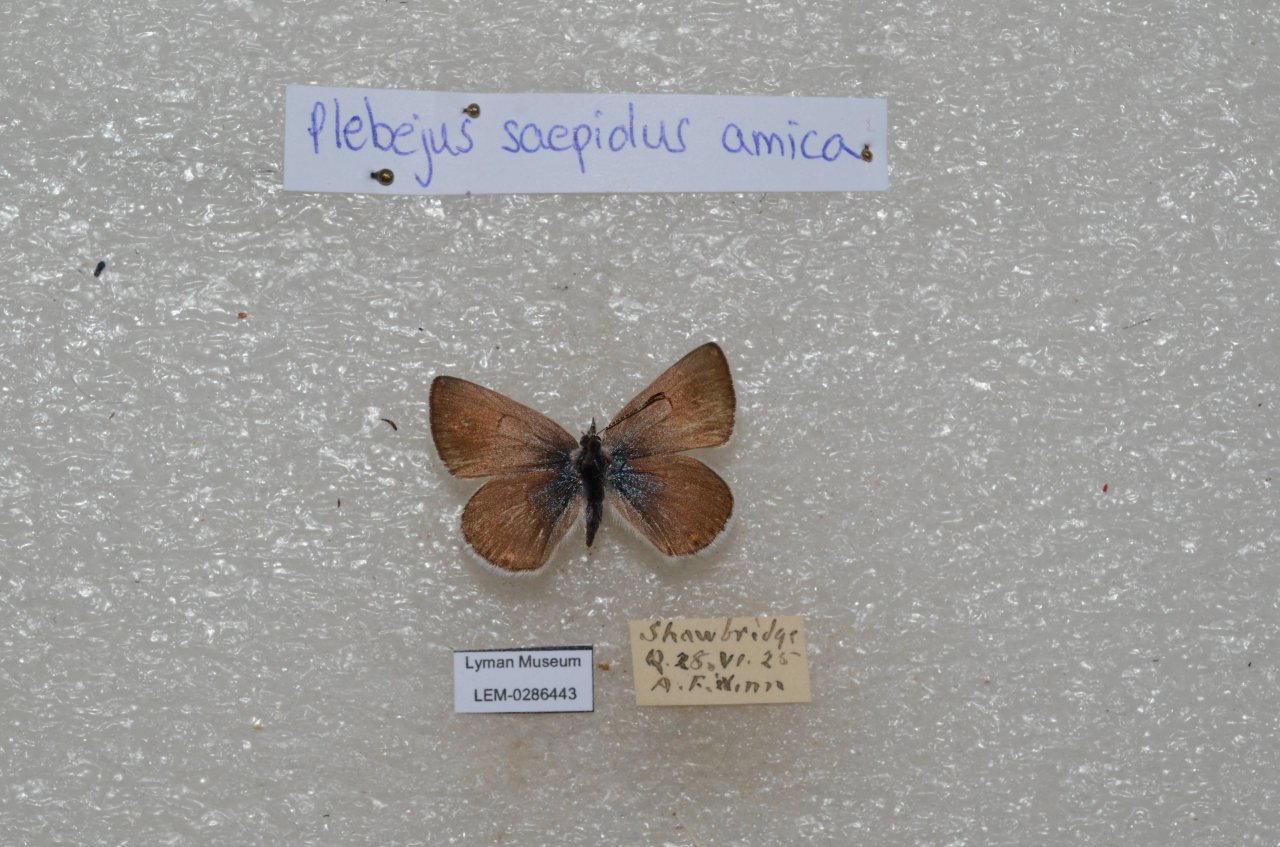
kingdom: Animalia
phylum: Arthropoda
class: Insecta
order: Lepidoptera
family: Lycaenidae
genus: Plebejus
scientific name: Plebejus saepiolus
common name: Greenish Blue
